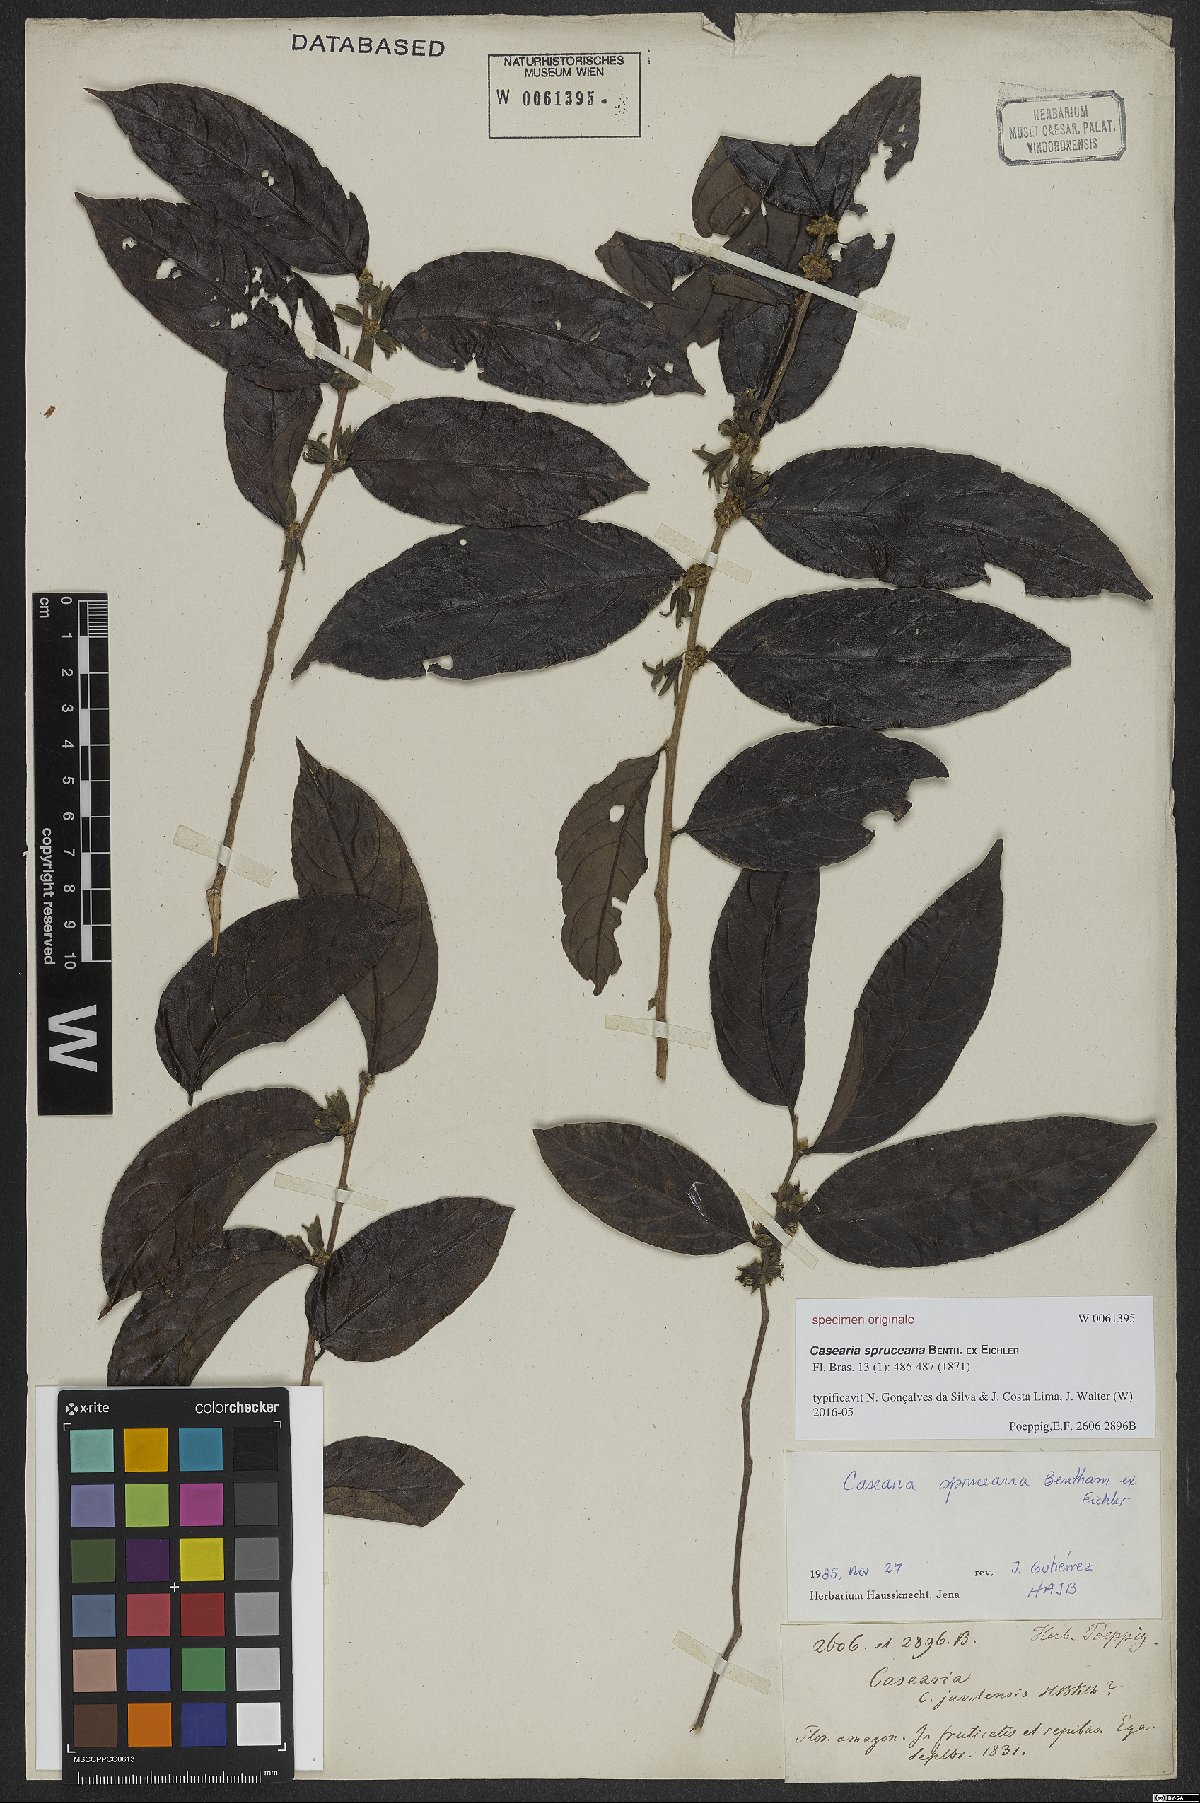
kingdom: Plantae
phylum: Tracheophyta
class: Magnoliopsida
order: Malpighiales
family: Salicaceae
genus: Piparea
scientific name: Piparea spruceana
